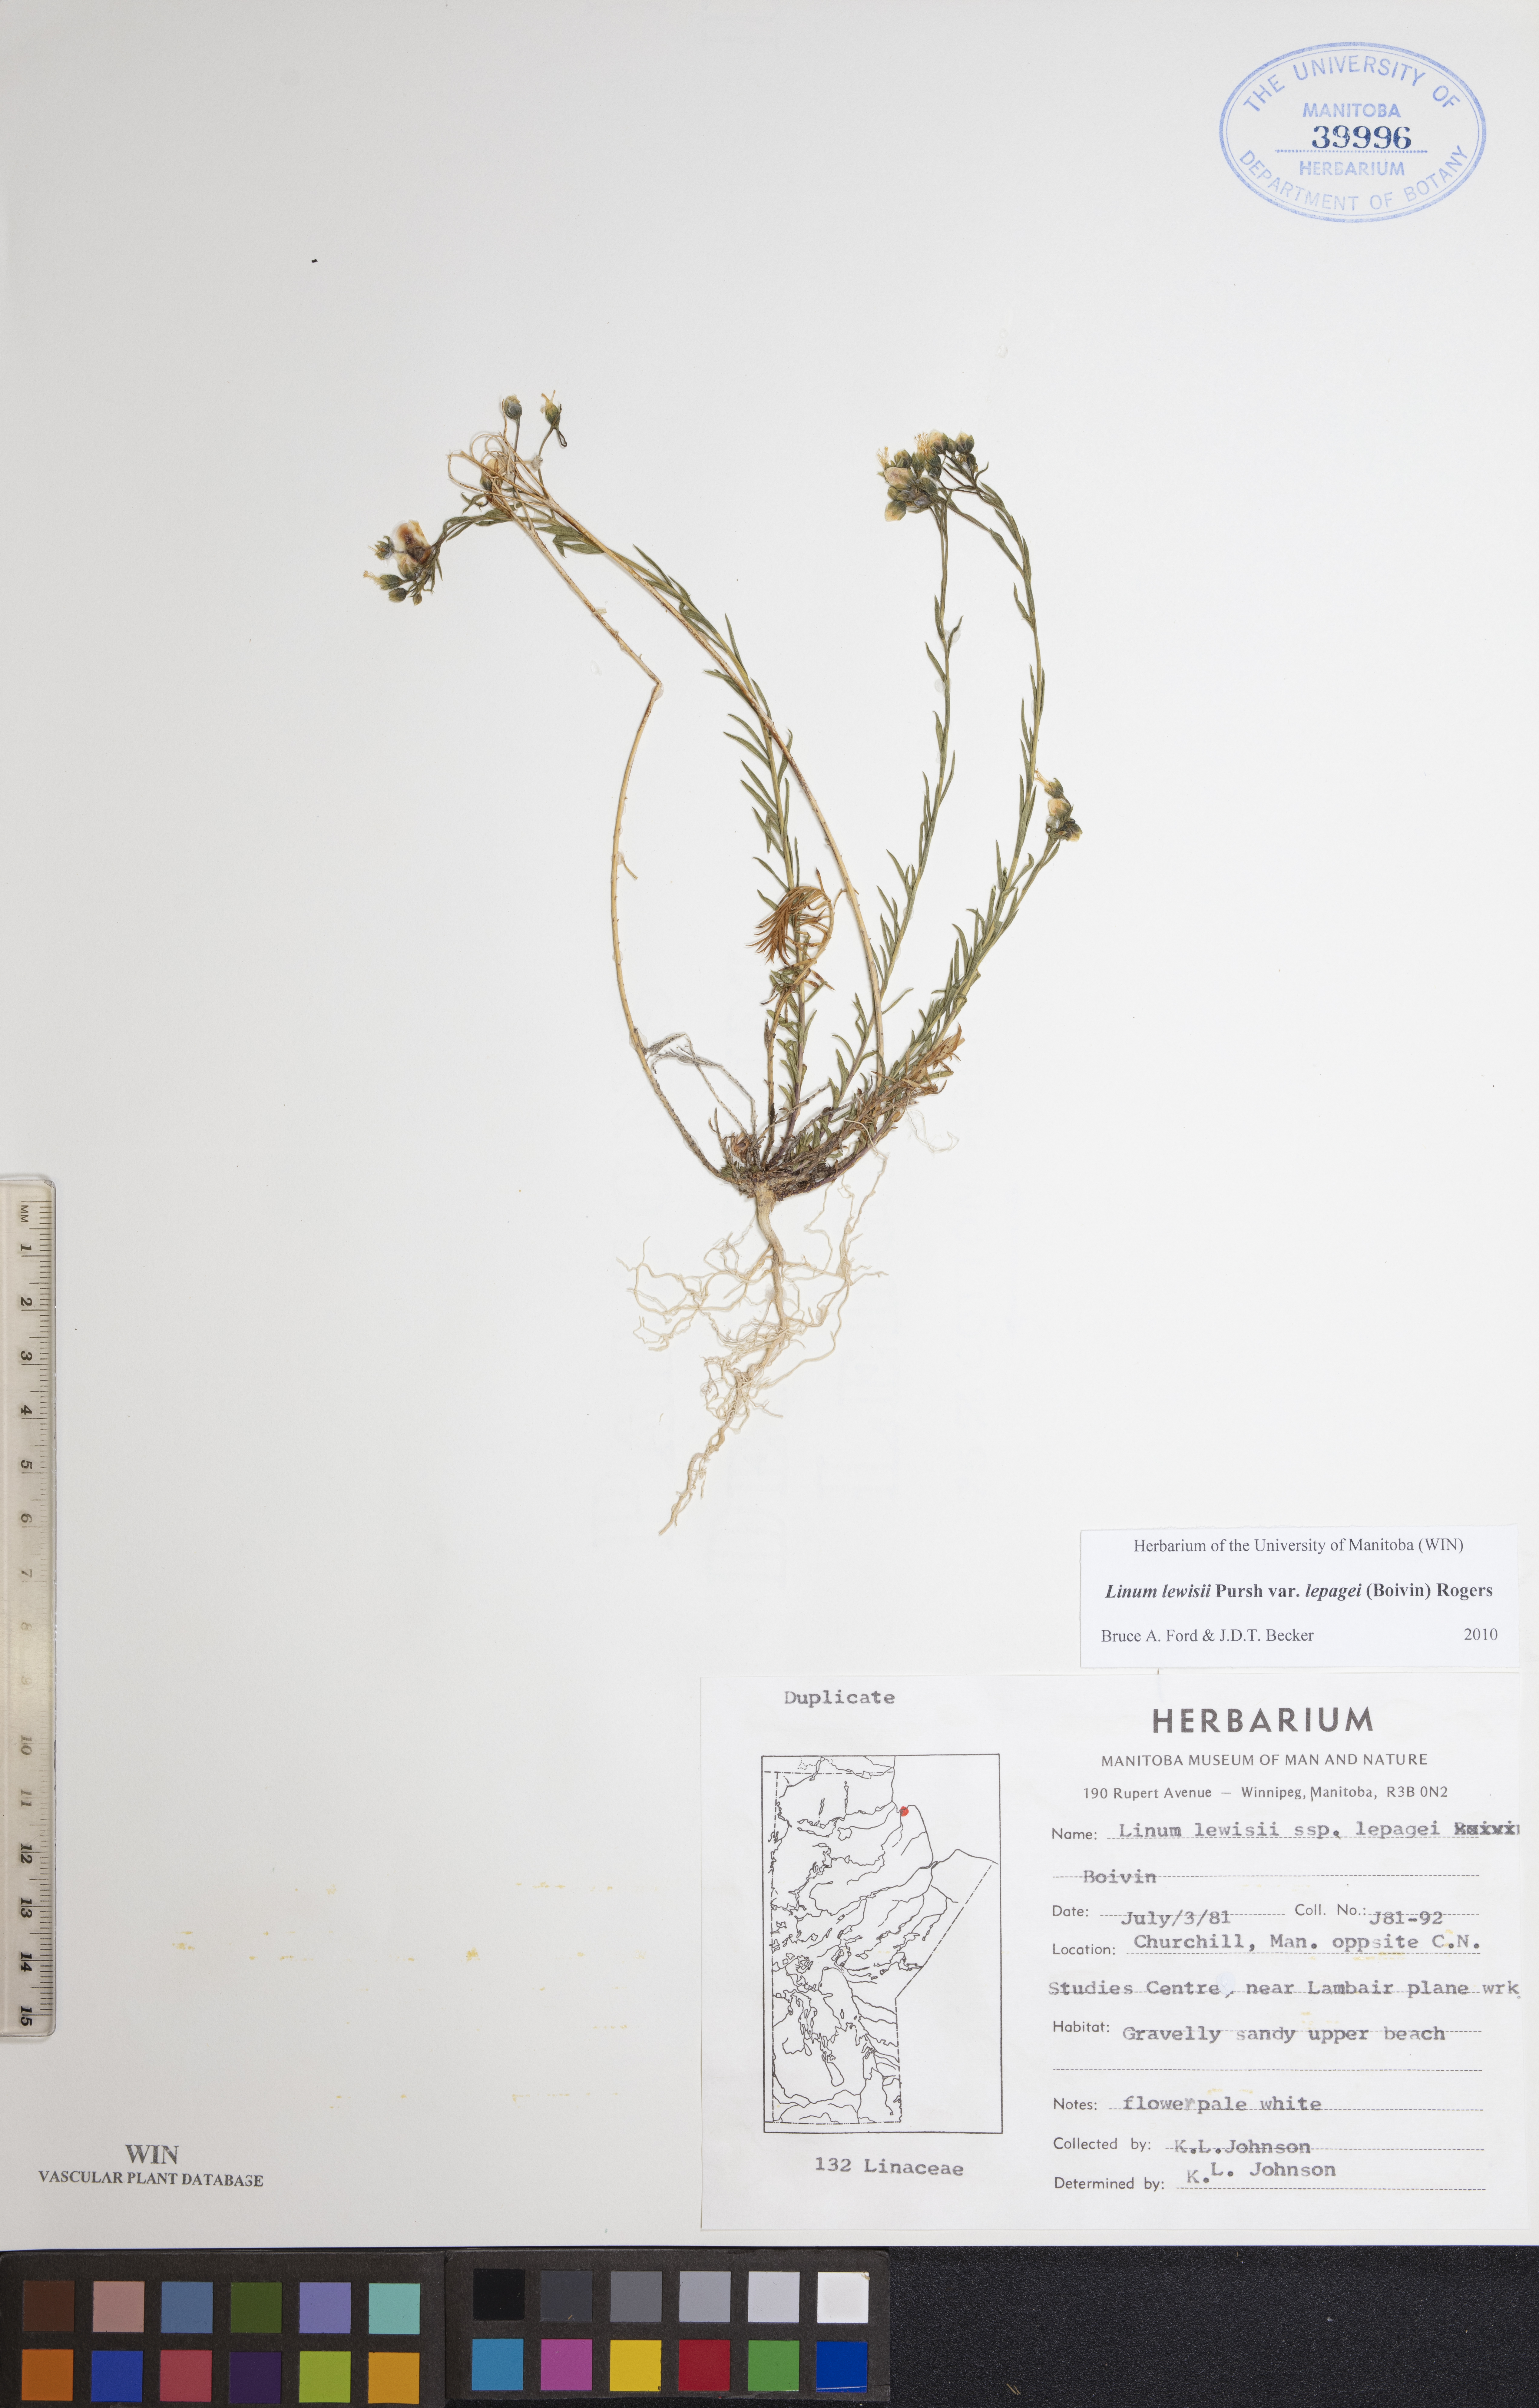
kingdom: Plantae
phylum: Tracheophyta
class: Magnoliopsida
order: Malpighiales
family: Linaceae
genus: Linum
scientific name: Linum lewisii
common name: Prairie flax
